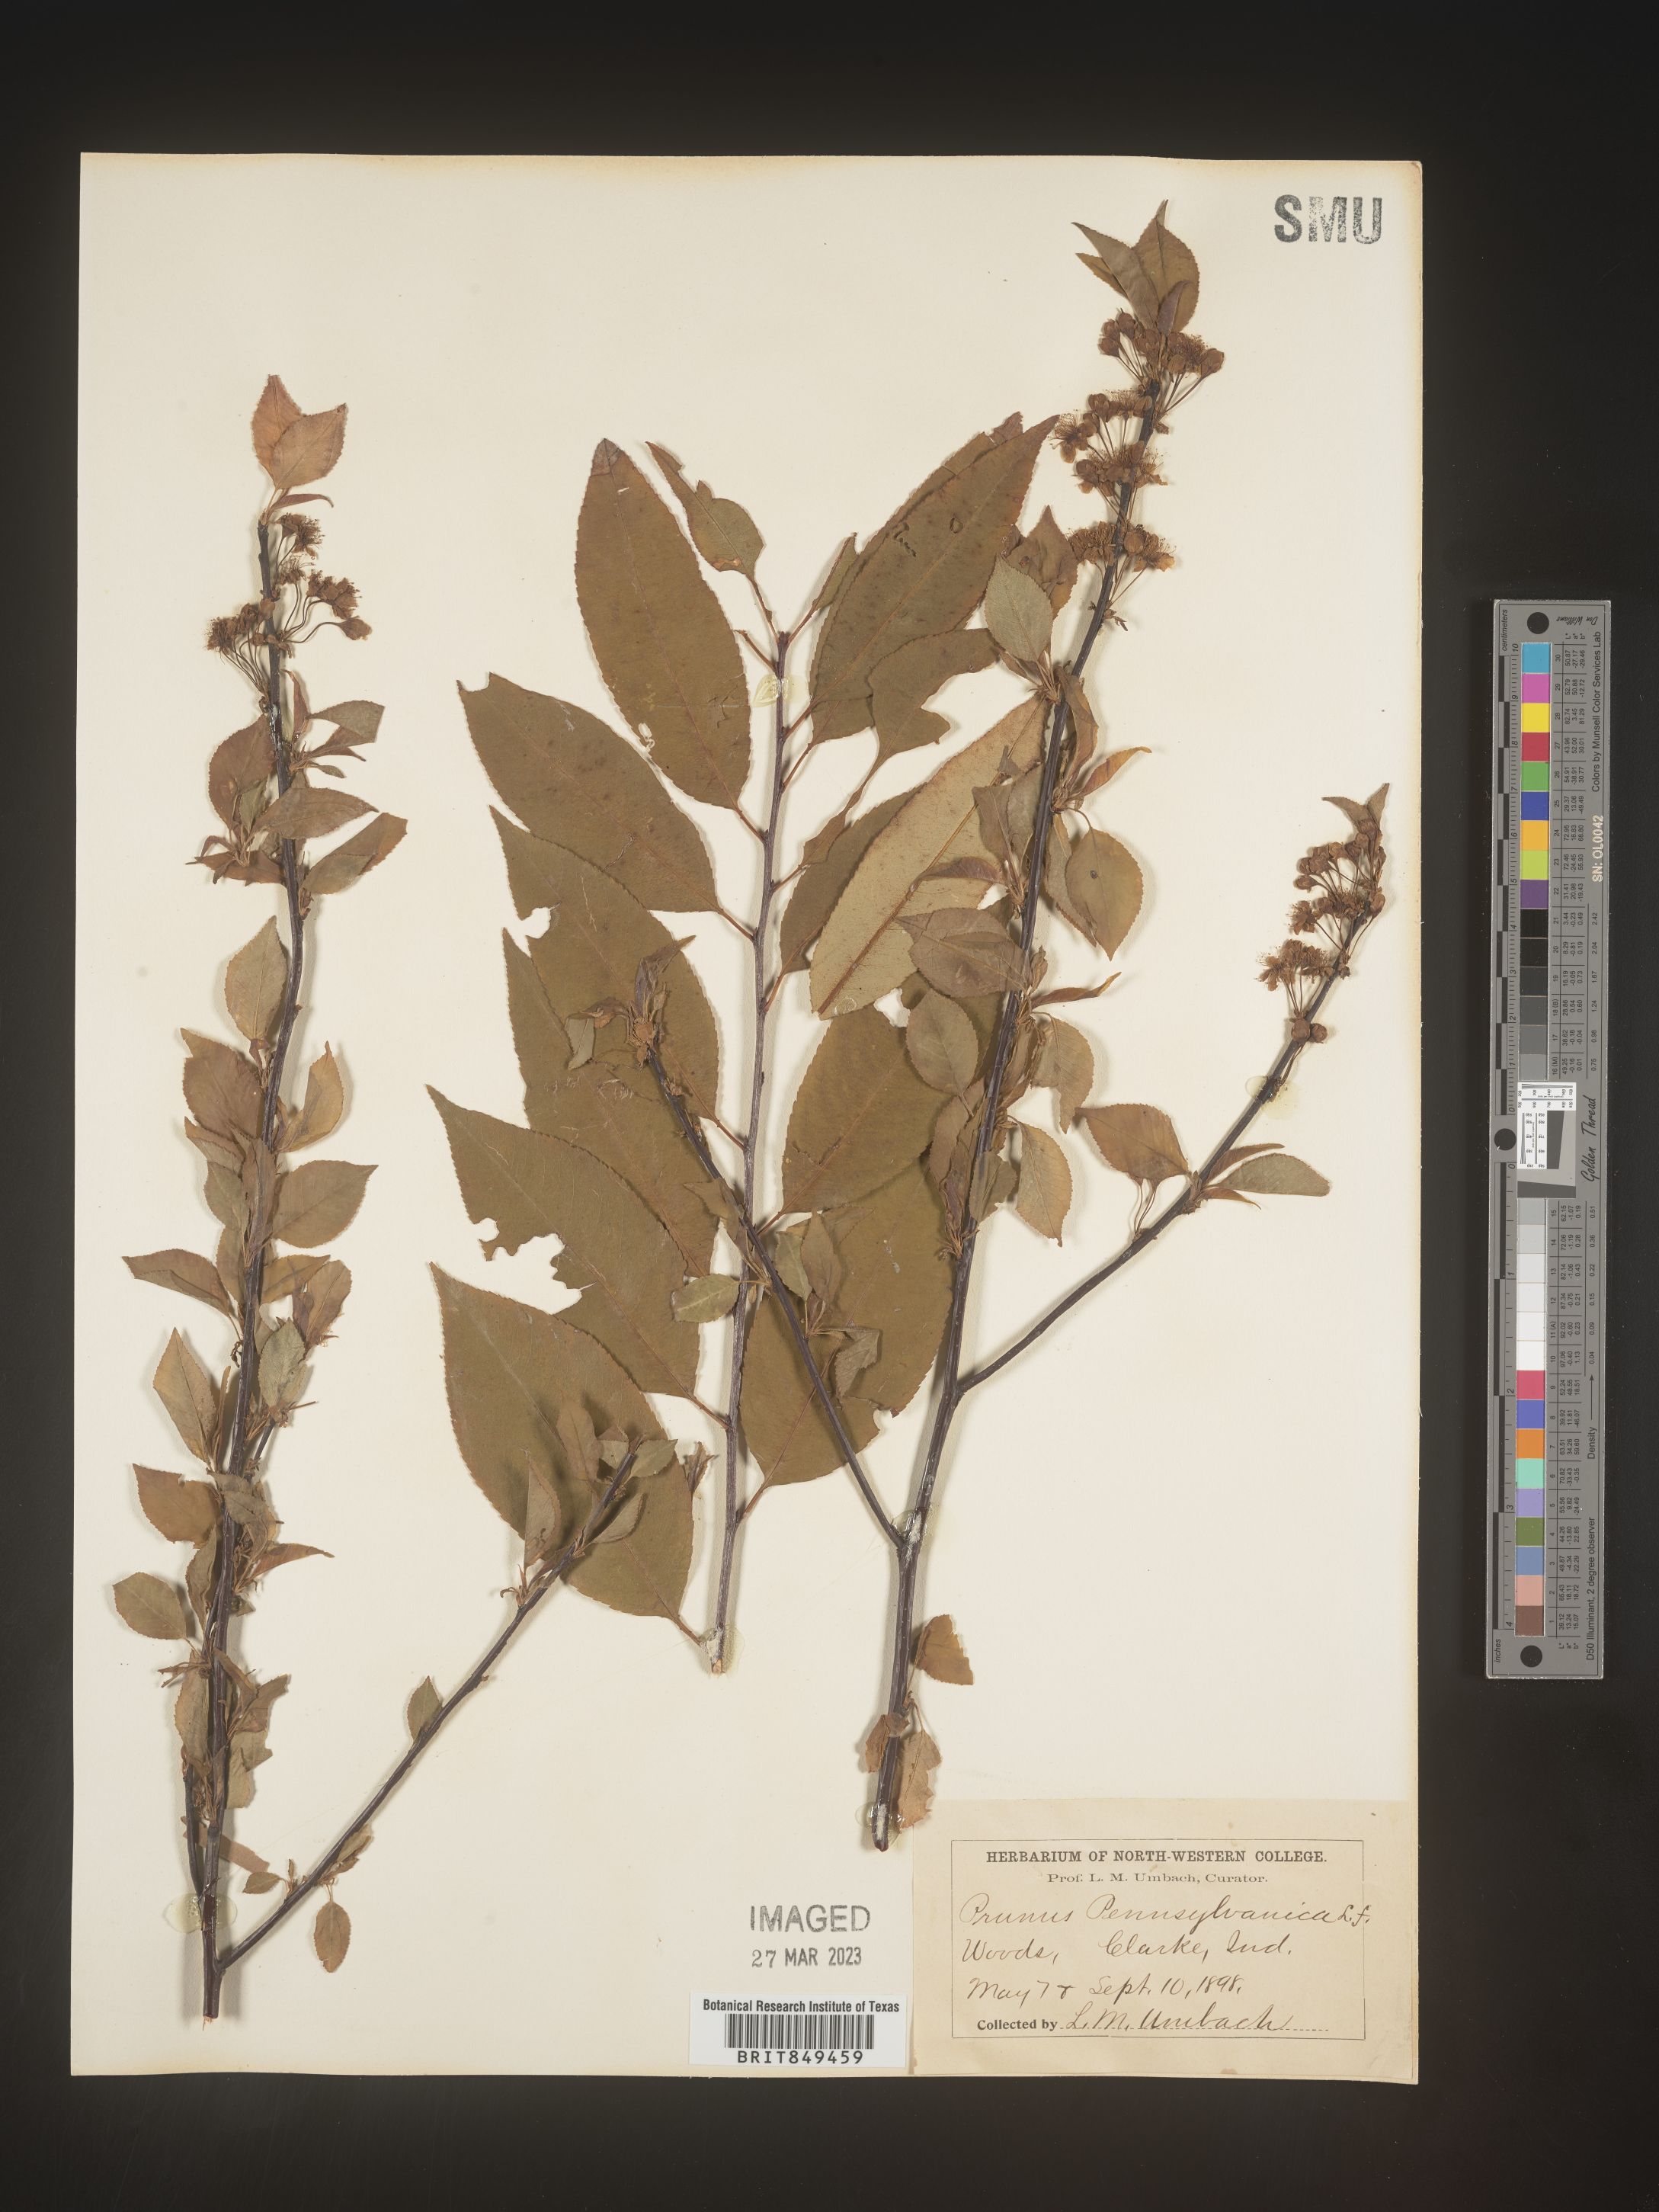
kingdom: Plantae
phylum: Tracheophyta
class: Magnoliopsida
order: Rosales
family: Rosaceae
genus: Prunus
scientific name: Prunus pensylvanica
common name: Pin cherry
